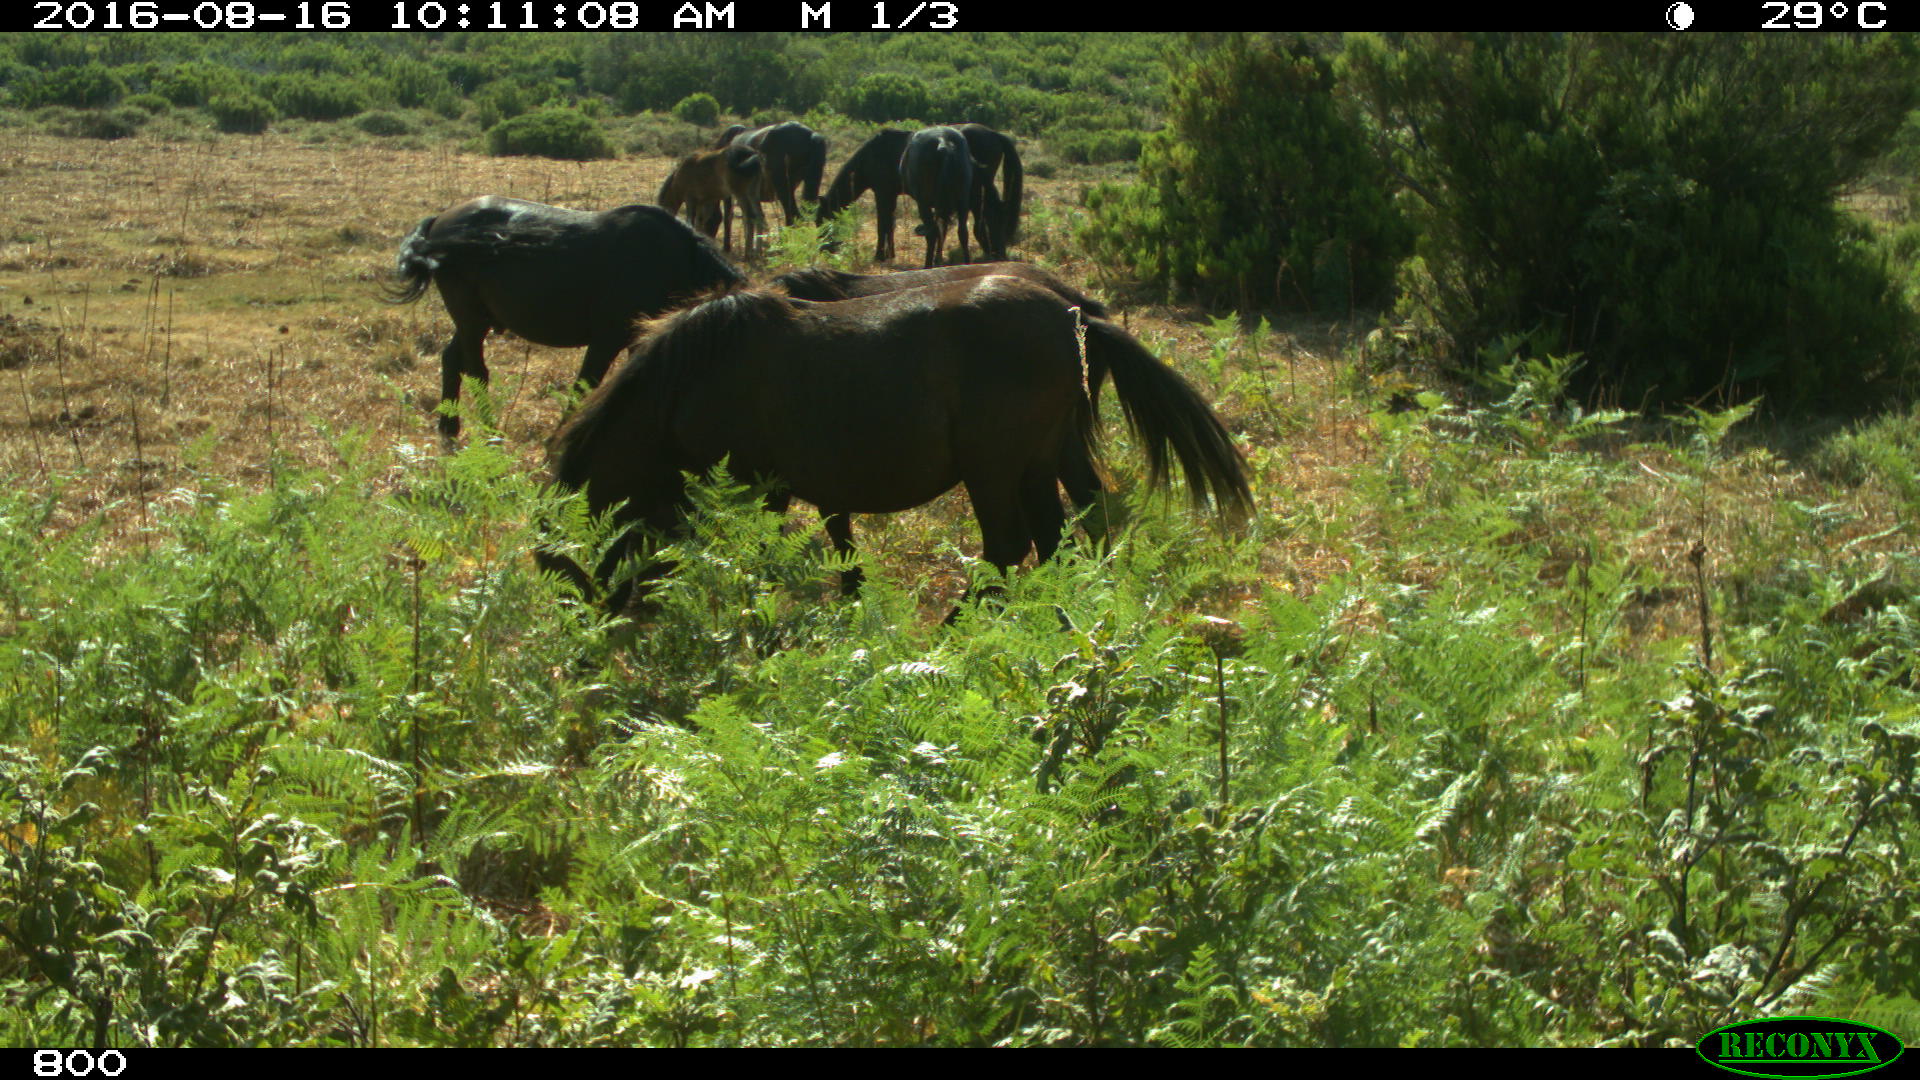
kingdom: Animalia
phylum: Chordata
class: Mammalia
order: Perissodactyla
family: Equidae
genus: Equus
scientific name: Equus caballus
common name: Horse
